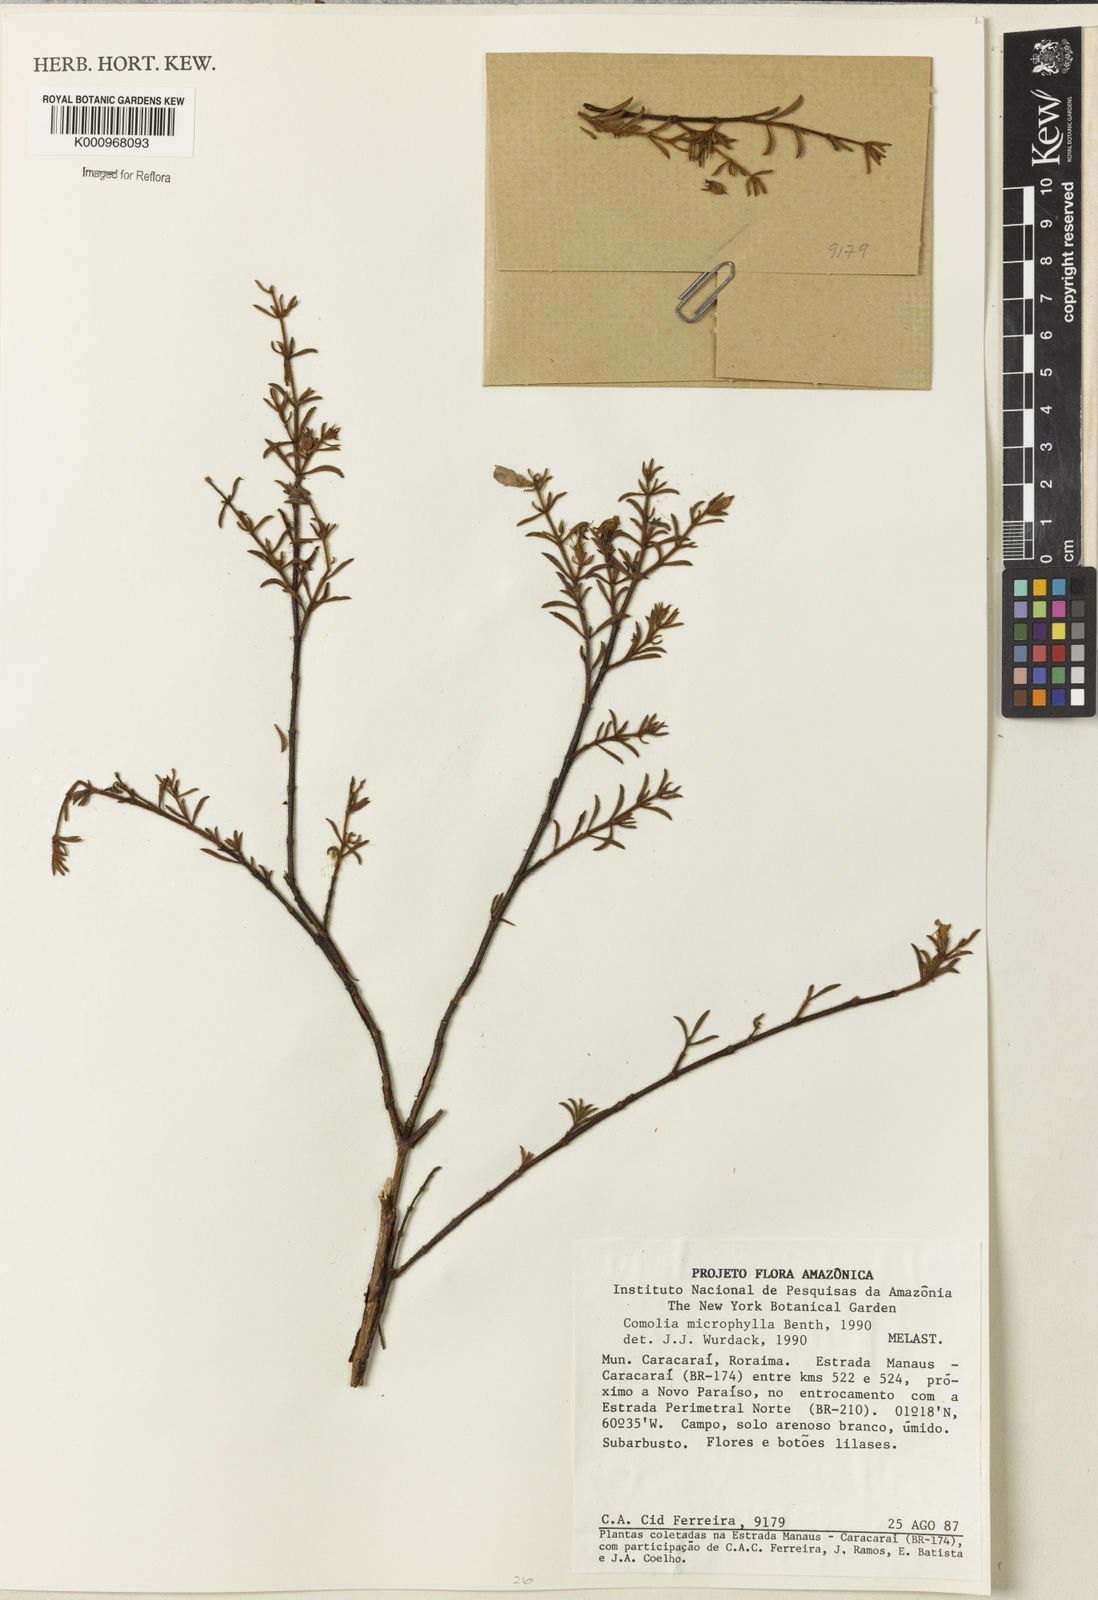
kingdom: Plantae
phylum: Tracheophyta
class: Magnoliopsida
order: Myrtales
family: Melastomataceae
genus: Comolia
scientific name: Comolia microphylla
